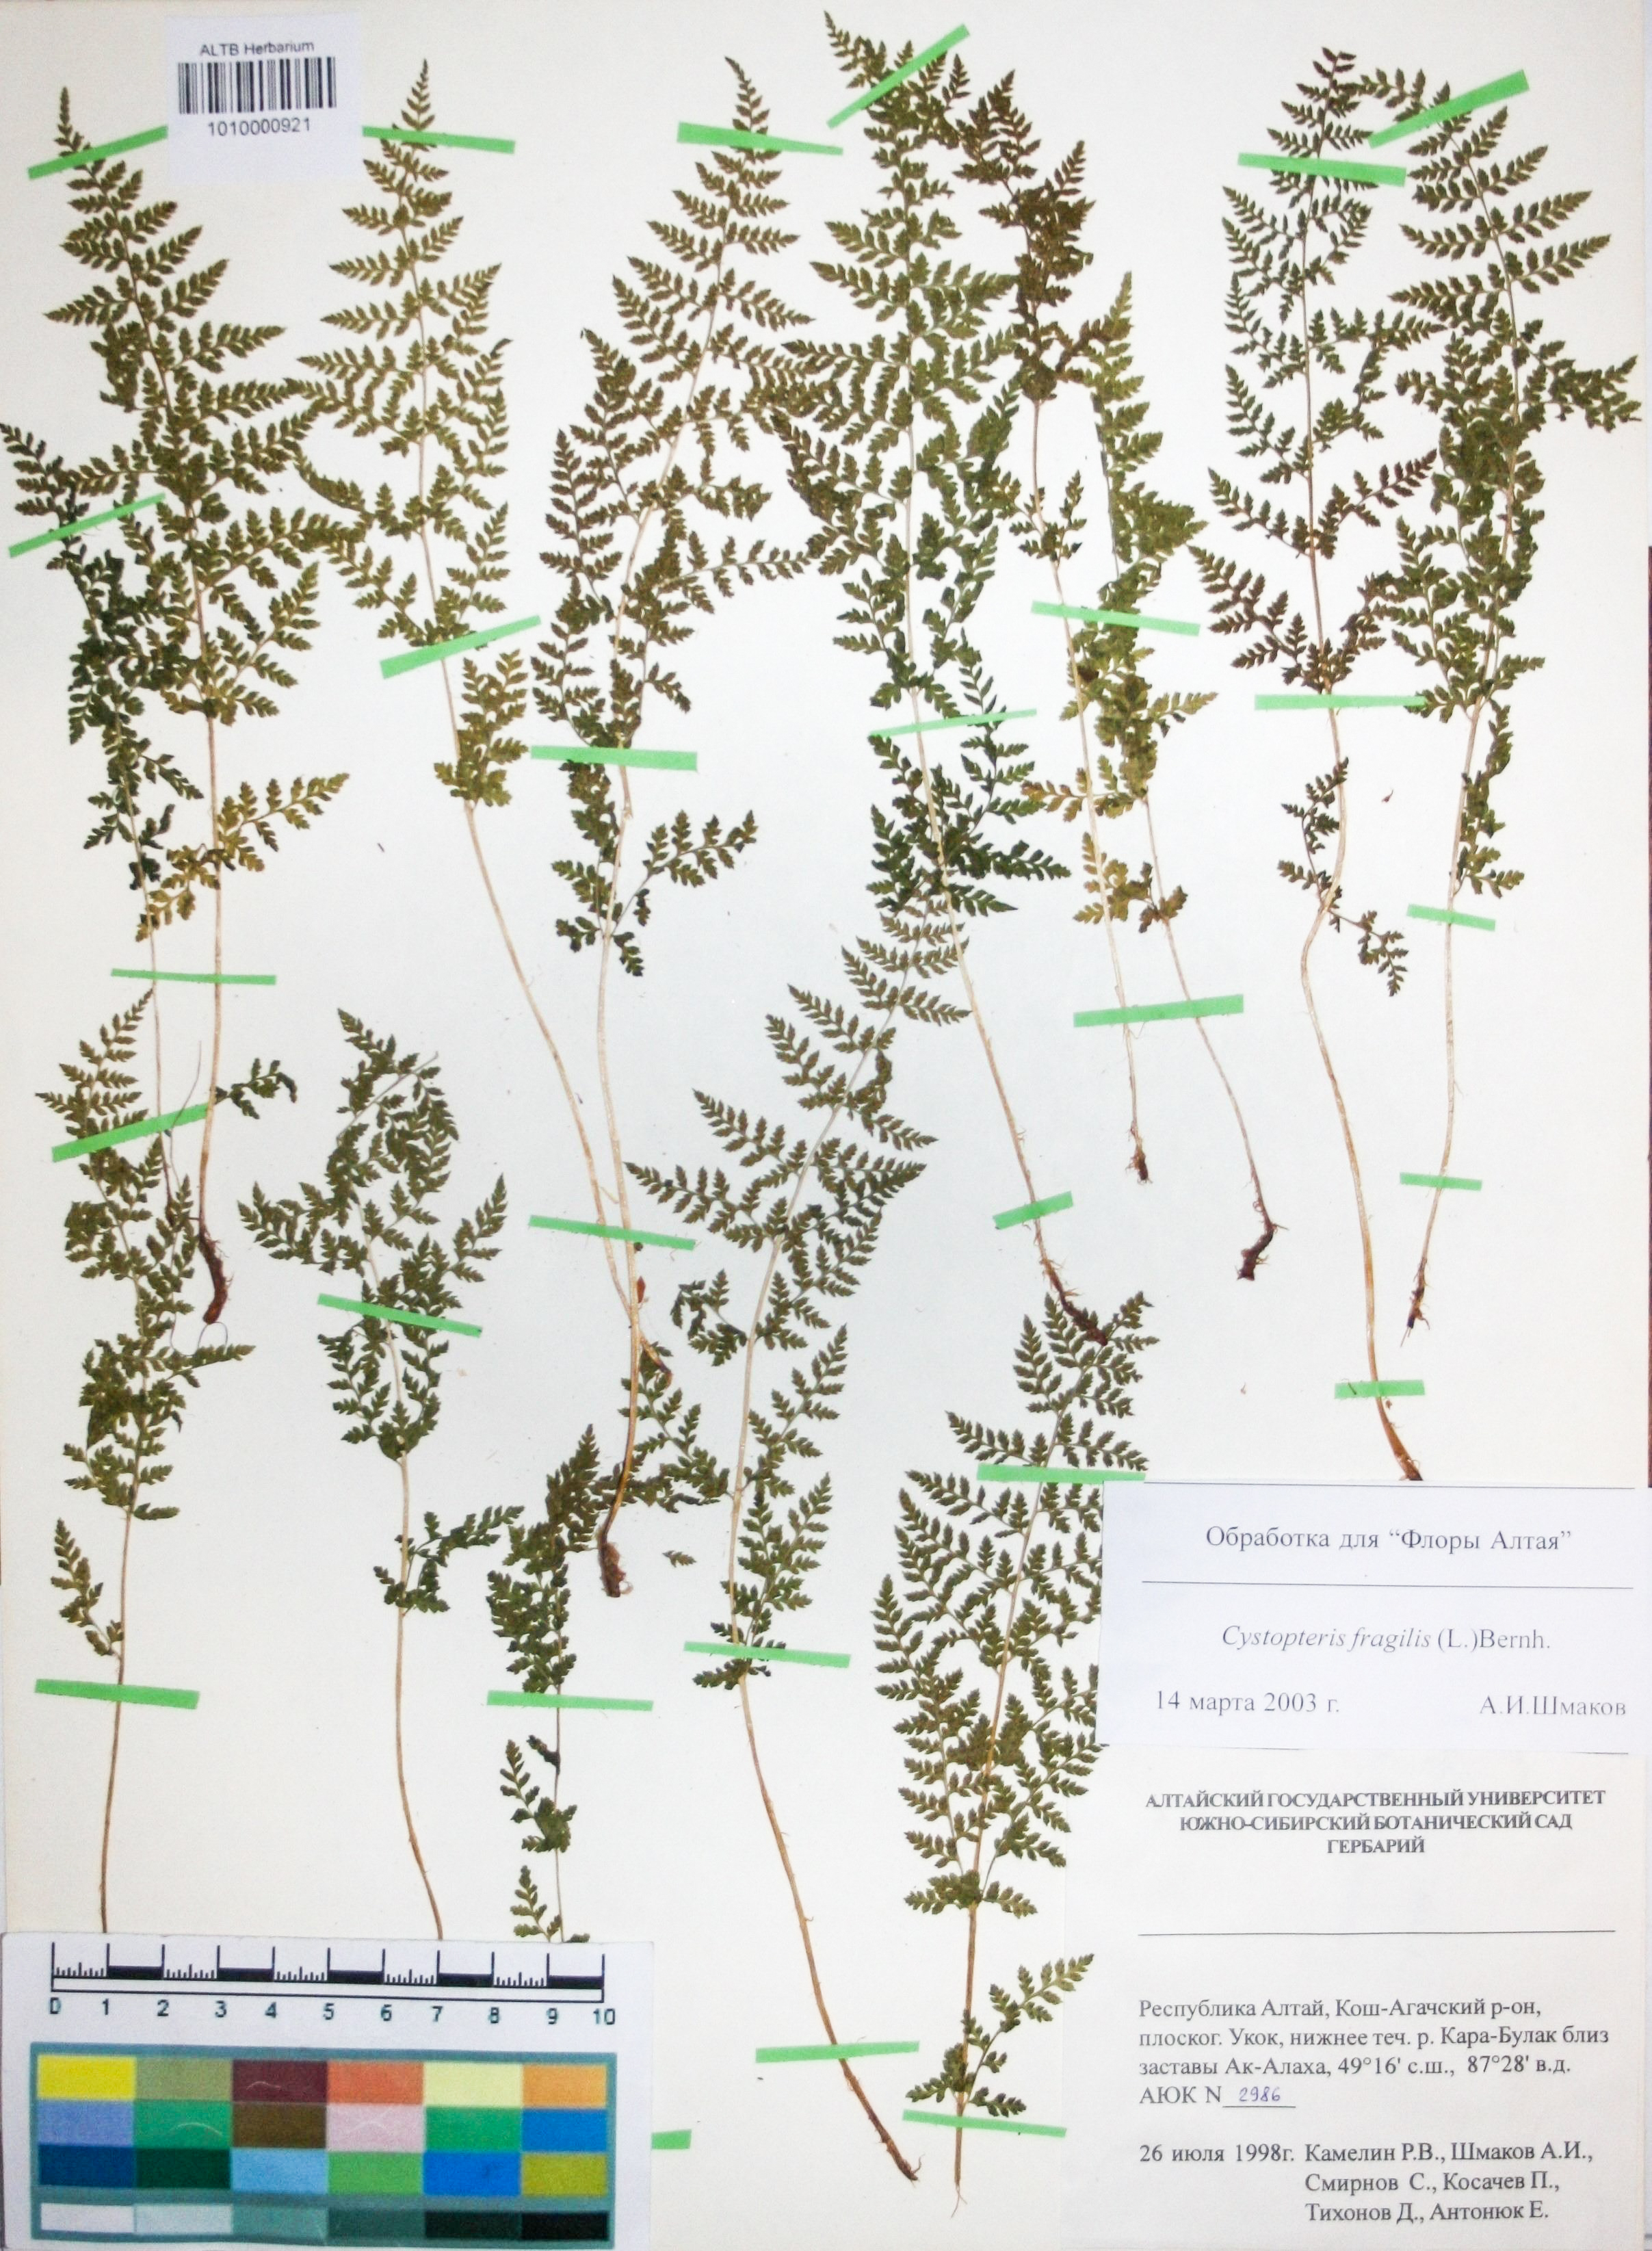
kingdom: Plantae
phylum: Tracheophyta
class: Polypodiopsida
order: Polypodiales
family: Cystopteridaceae
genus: Cystopteris
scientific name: Cystopteris fragilis
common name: Brittle bladder fern
